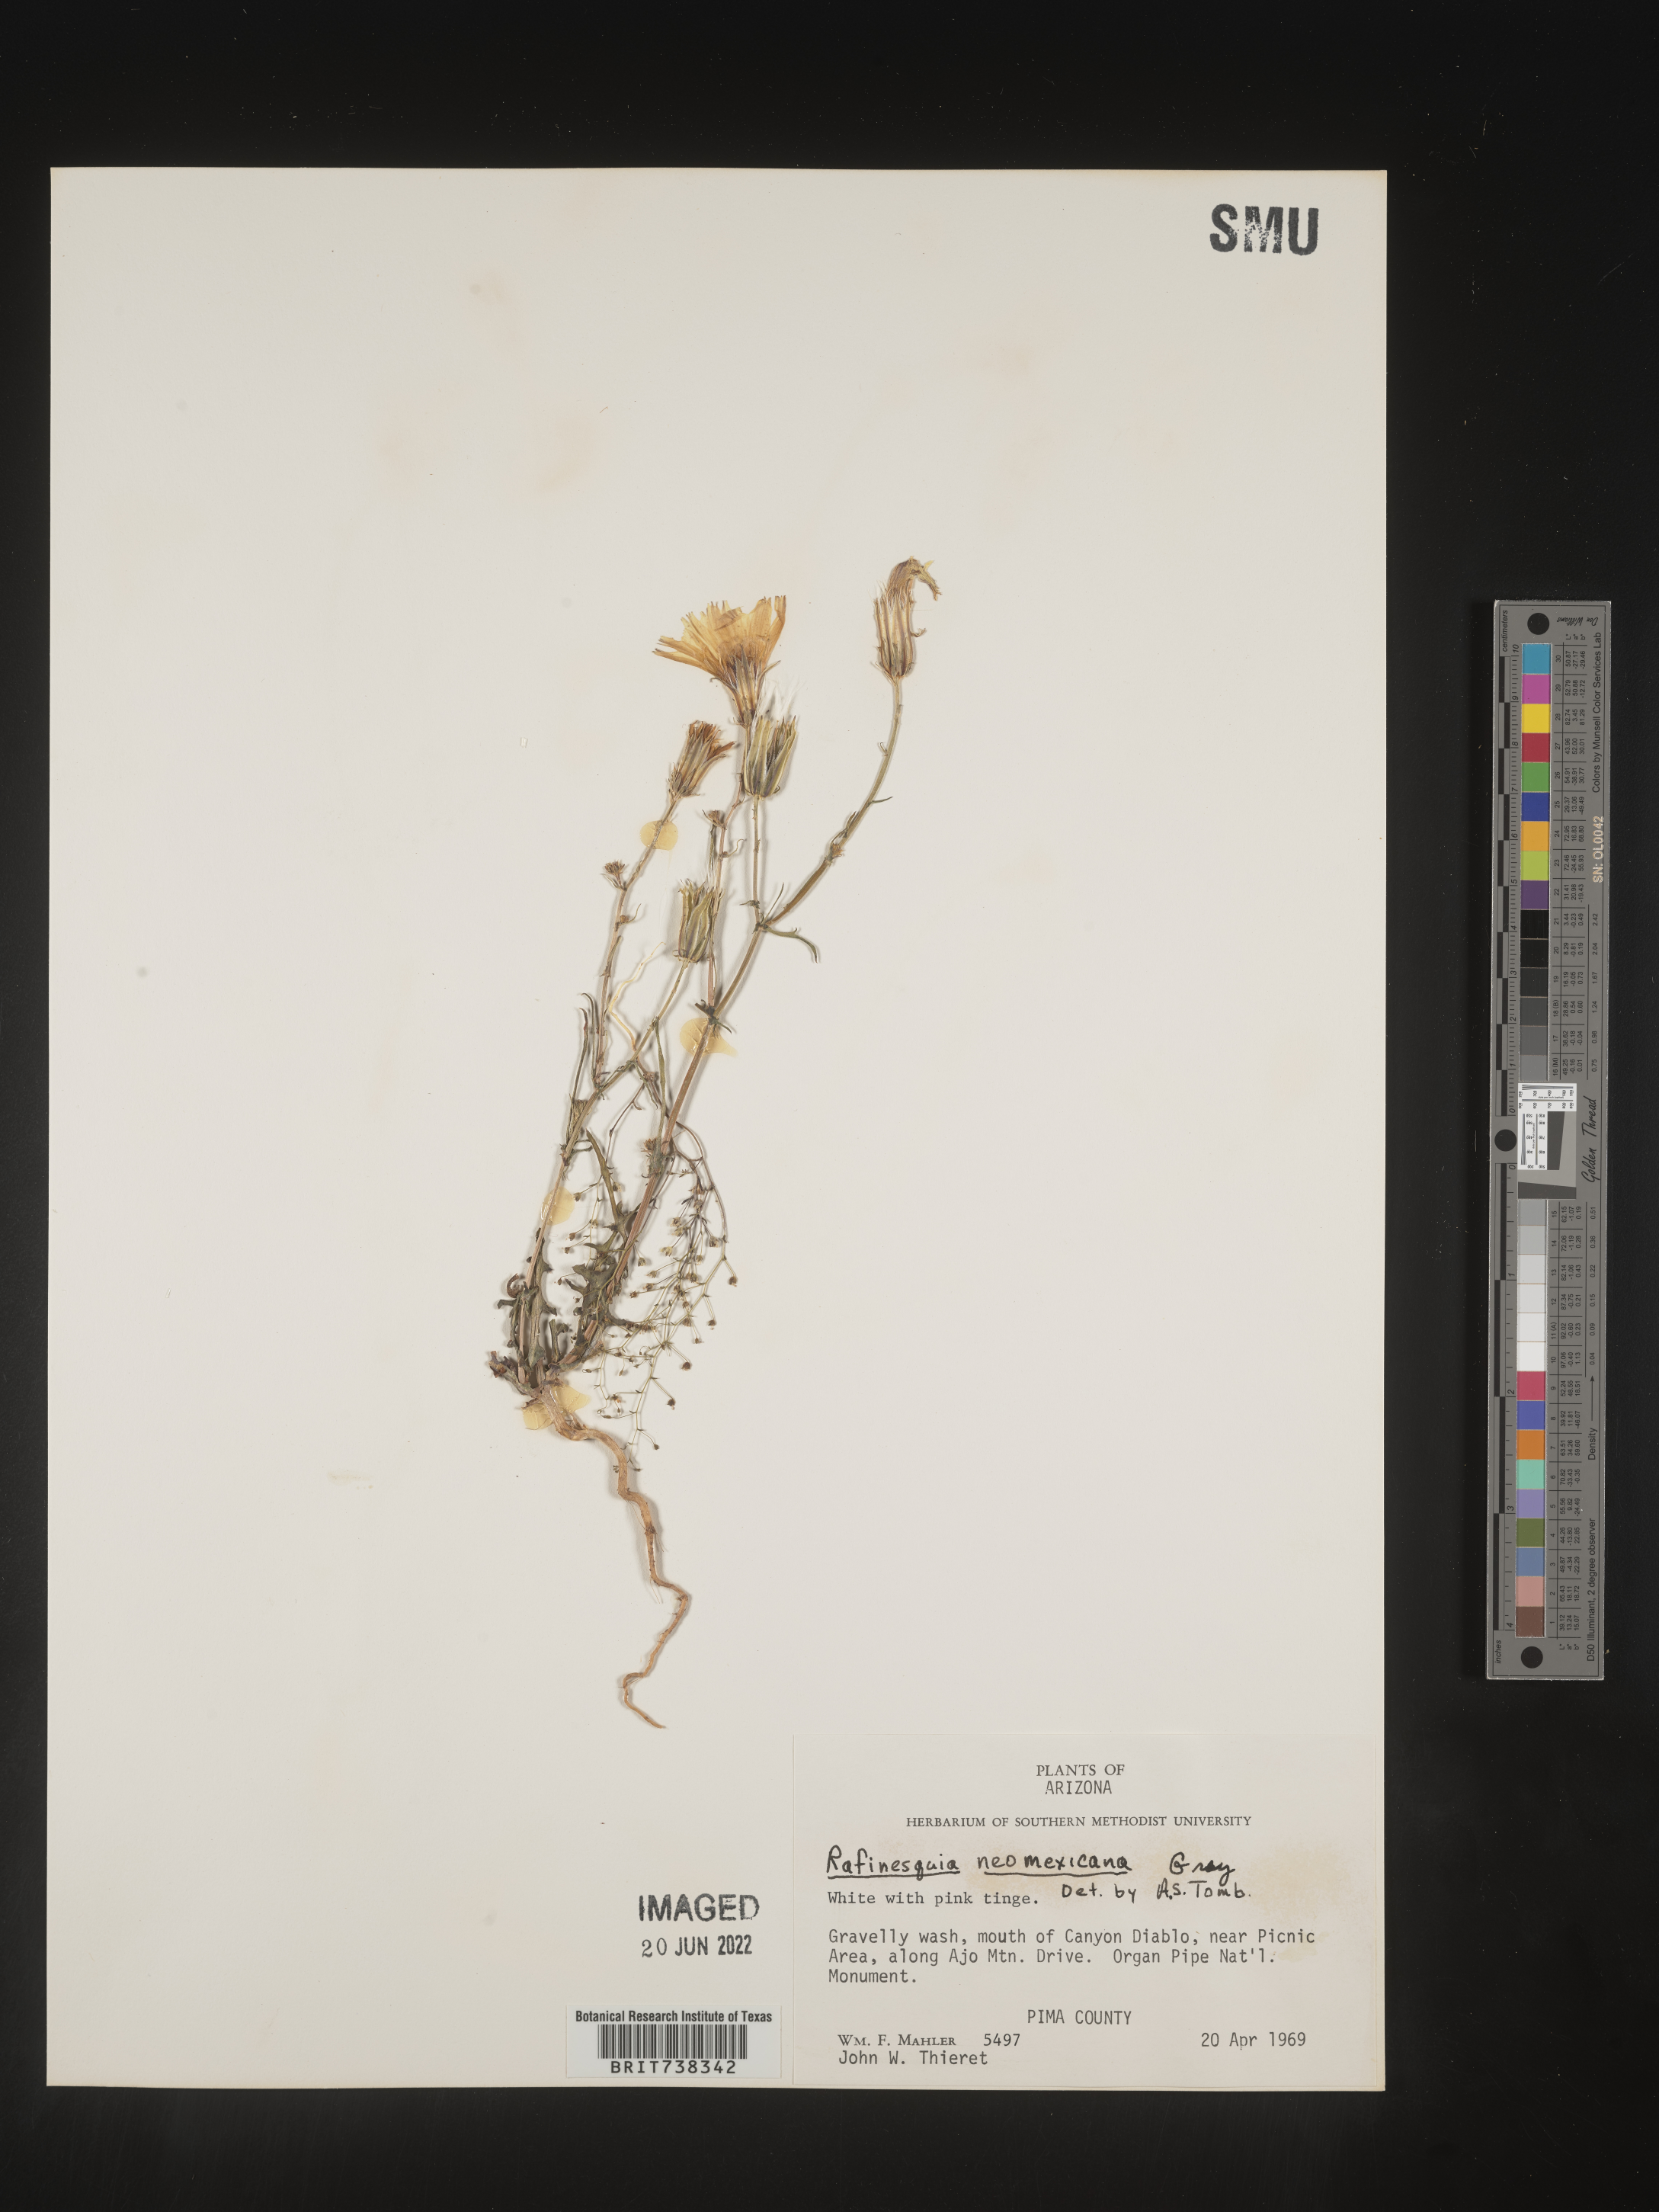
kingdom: Plantae
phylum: Tracheophyta
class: Magnoliopsida
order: Asterales
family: Asteraceae
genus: Rafinesquia
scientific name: Rafinesquia
